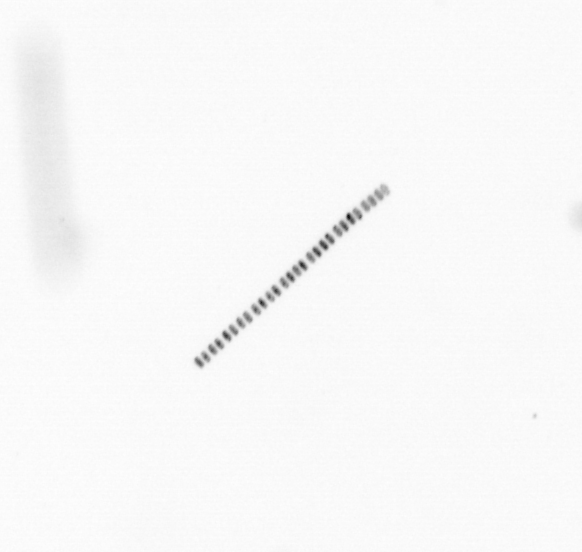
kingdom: Chromista
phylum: Ochrophyta
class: Bacillariophyceae
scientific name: Bacillariophyceae
